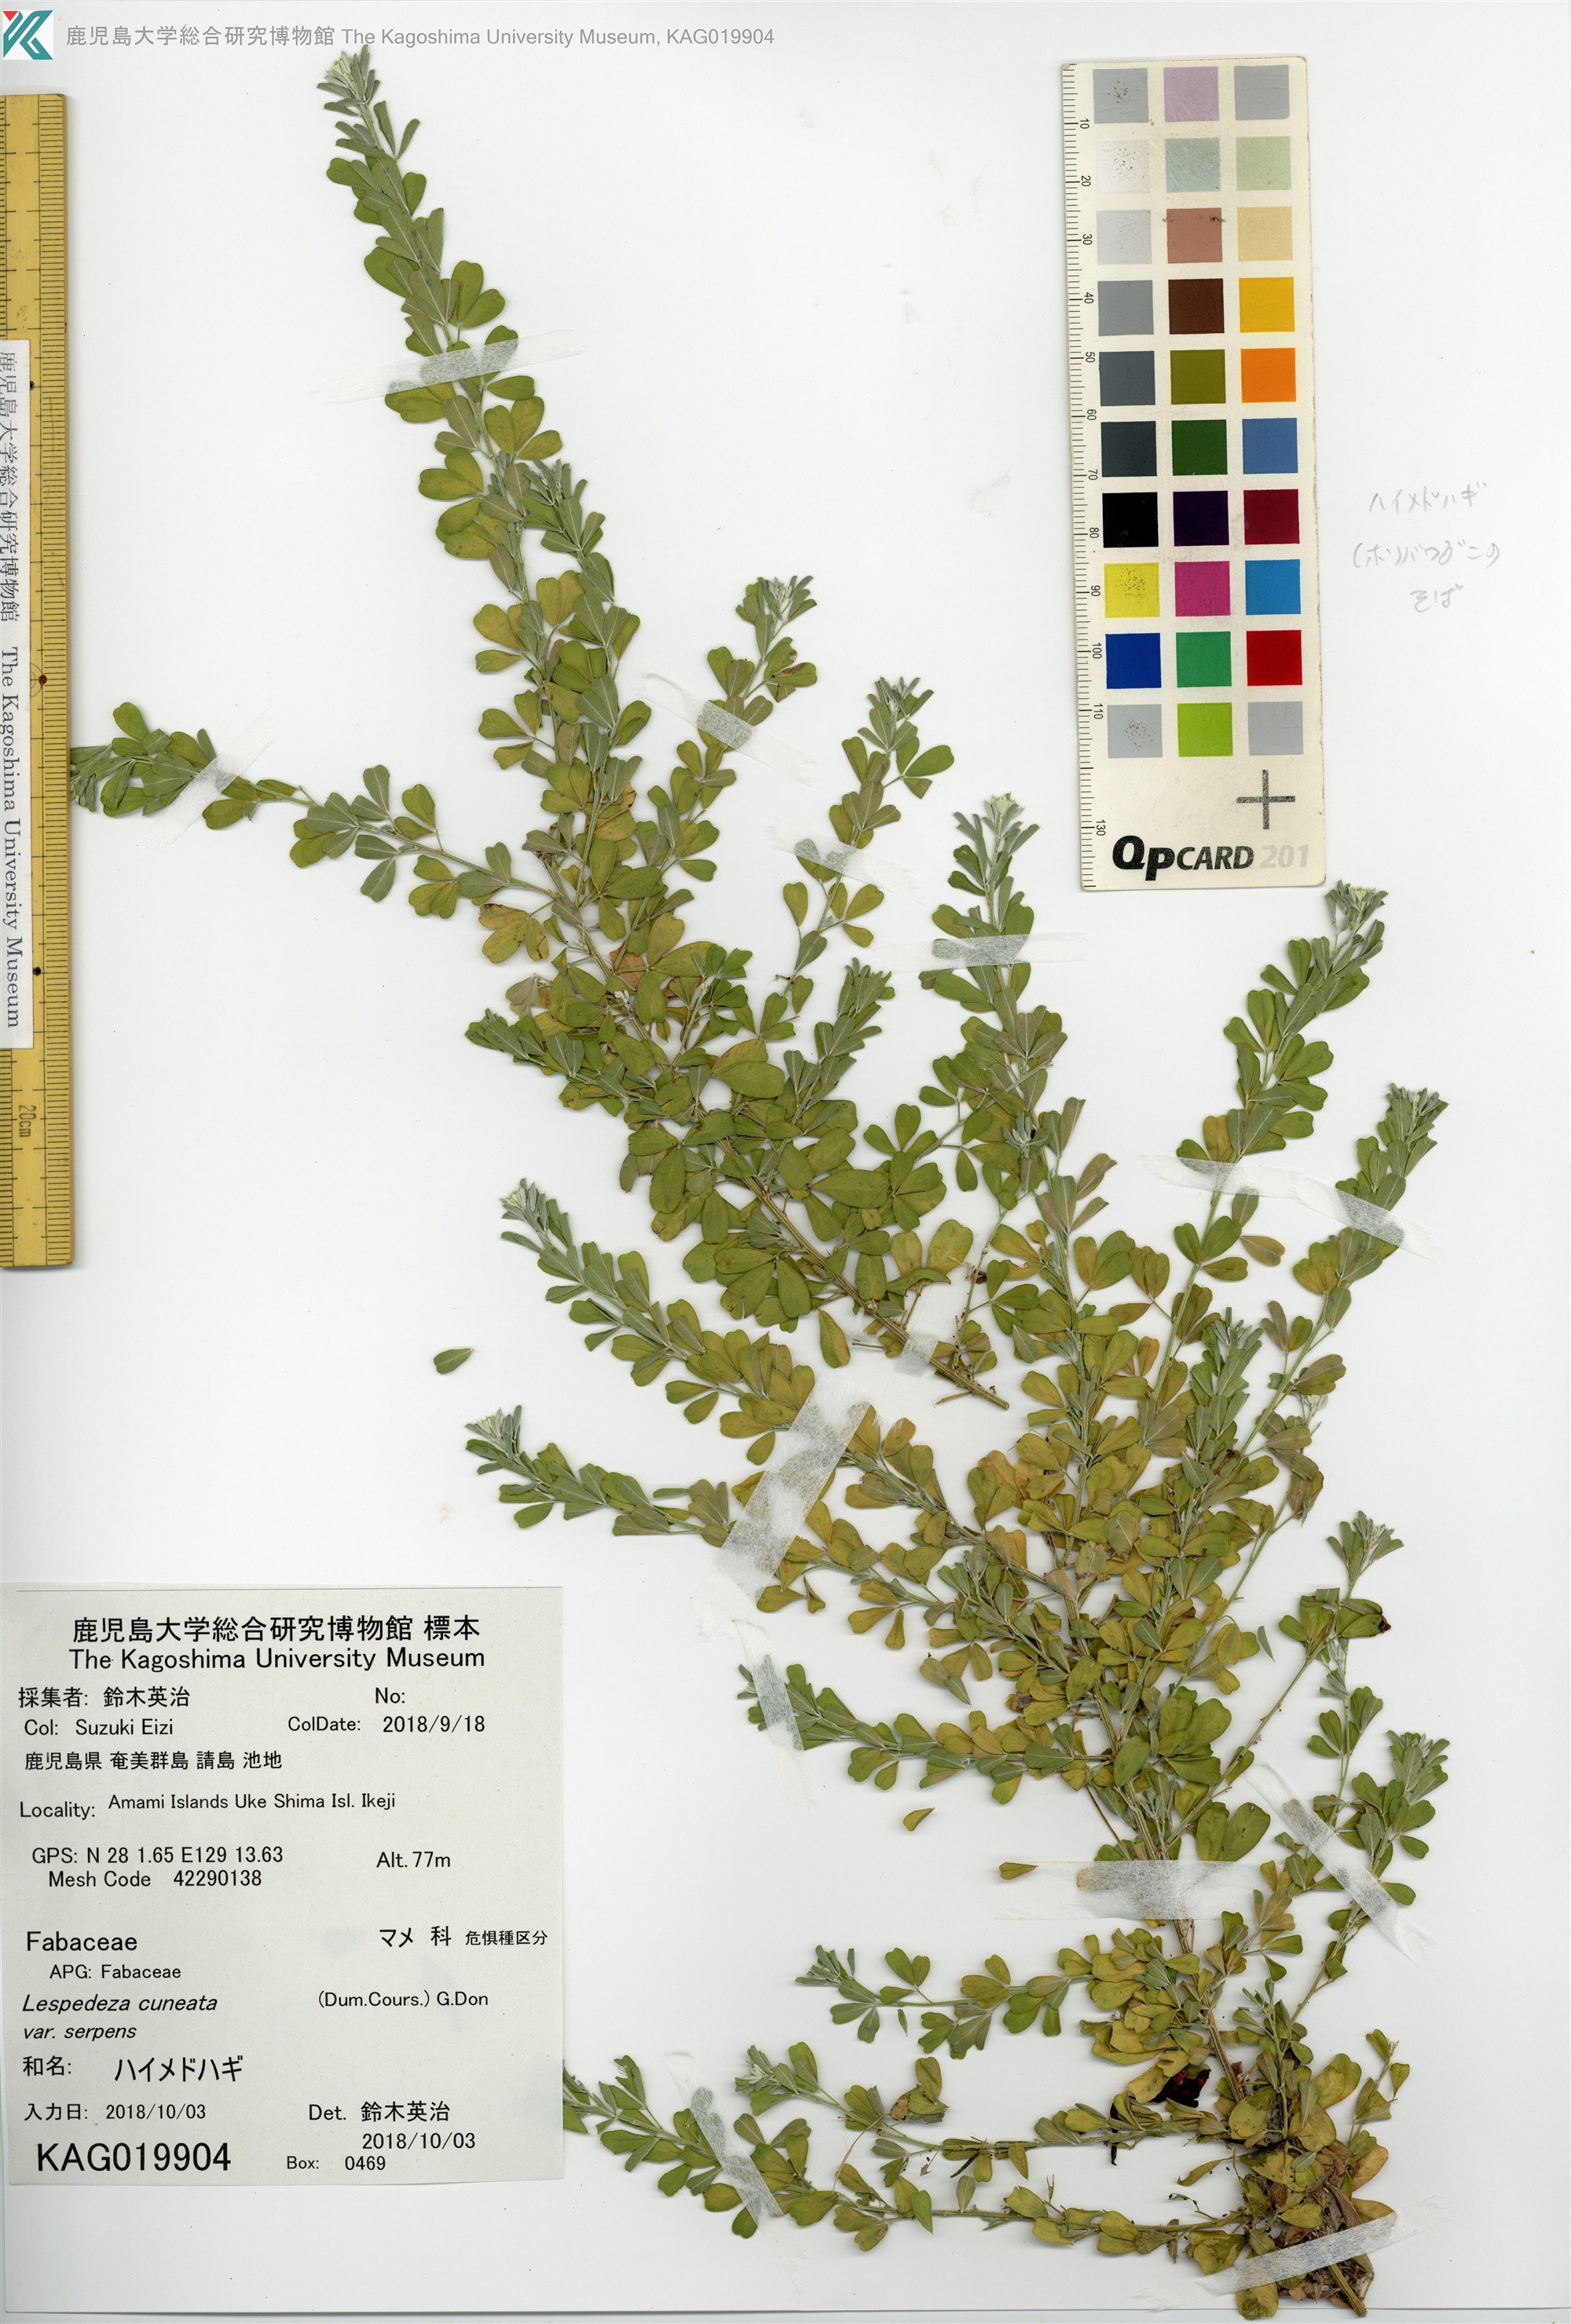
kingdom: Plantae
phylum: Tracheophyta
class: Magnoliopsida
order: Fabales
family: Fabaceae
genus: Lespedeza
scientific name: Lespedeza cuneata
